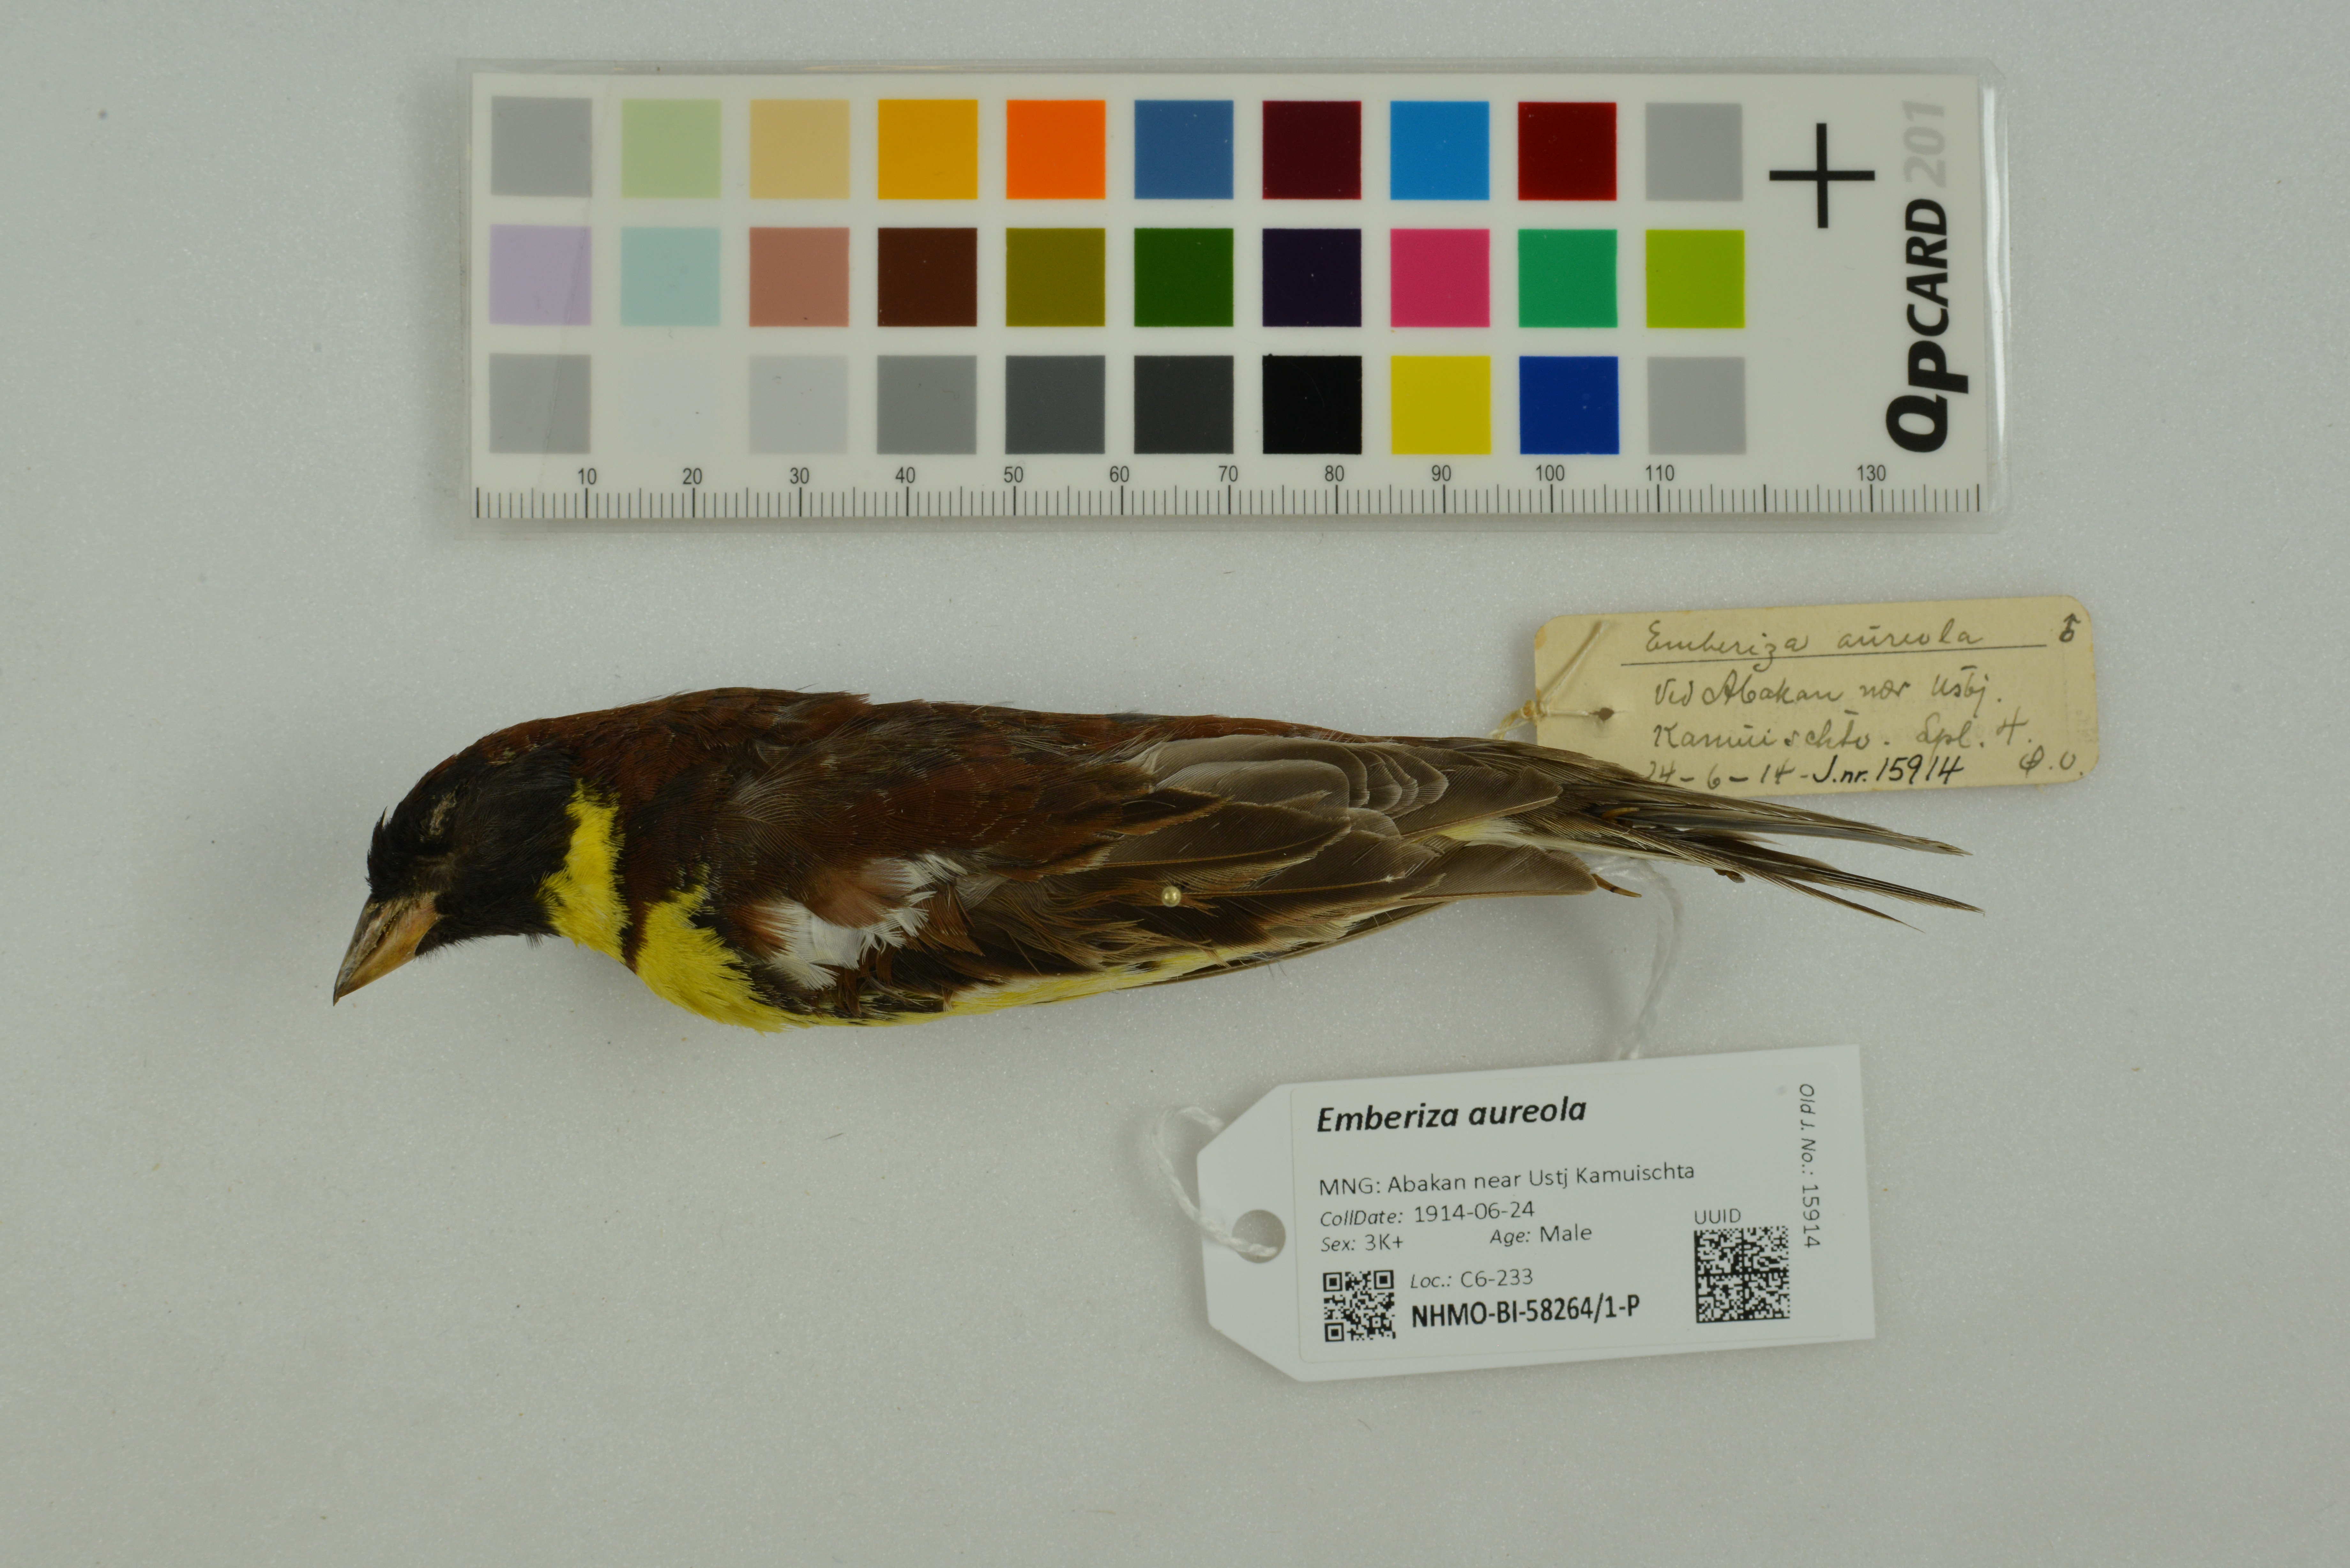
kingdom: Animalia
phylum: Chordata
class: Aves
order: Passeriformes
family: Emberizidae
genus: Emberiza
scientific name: Emberiza aureola
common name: Yellow-breasted bunting
